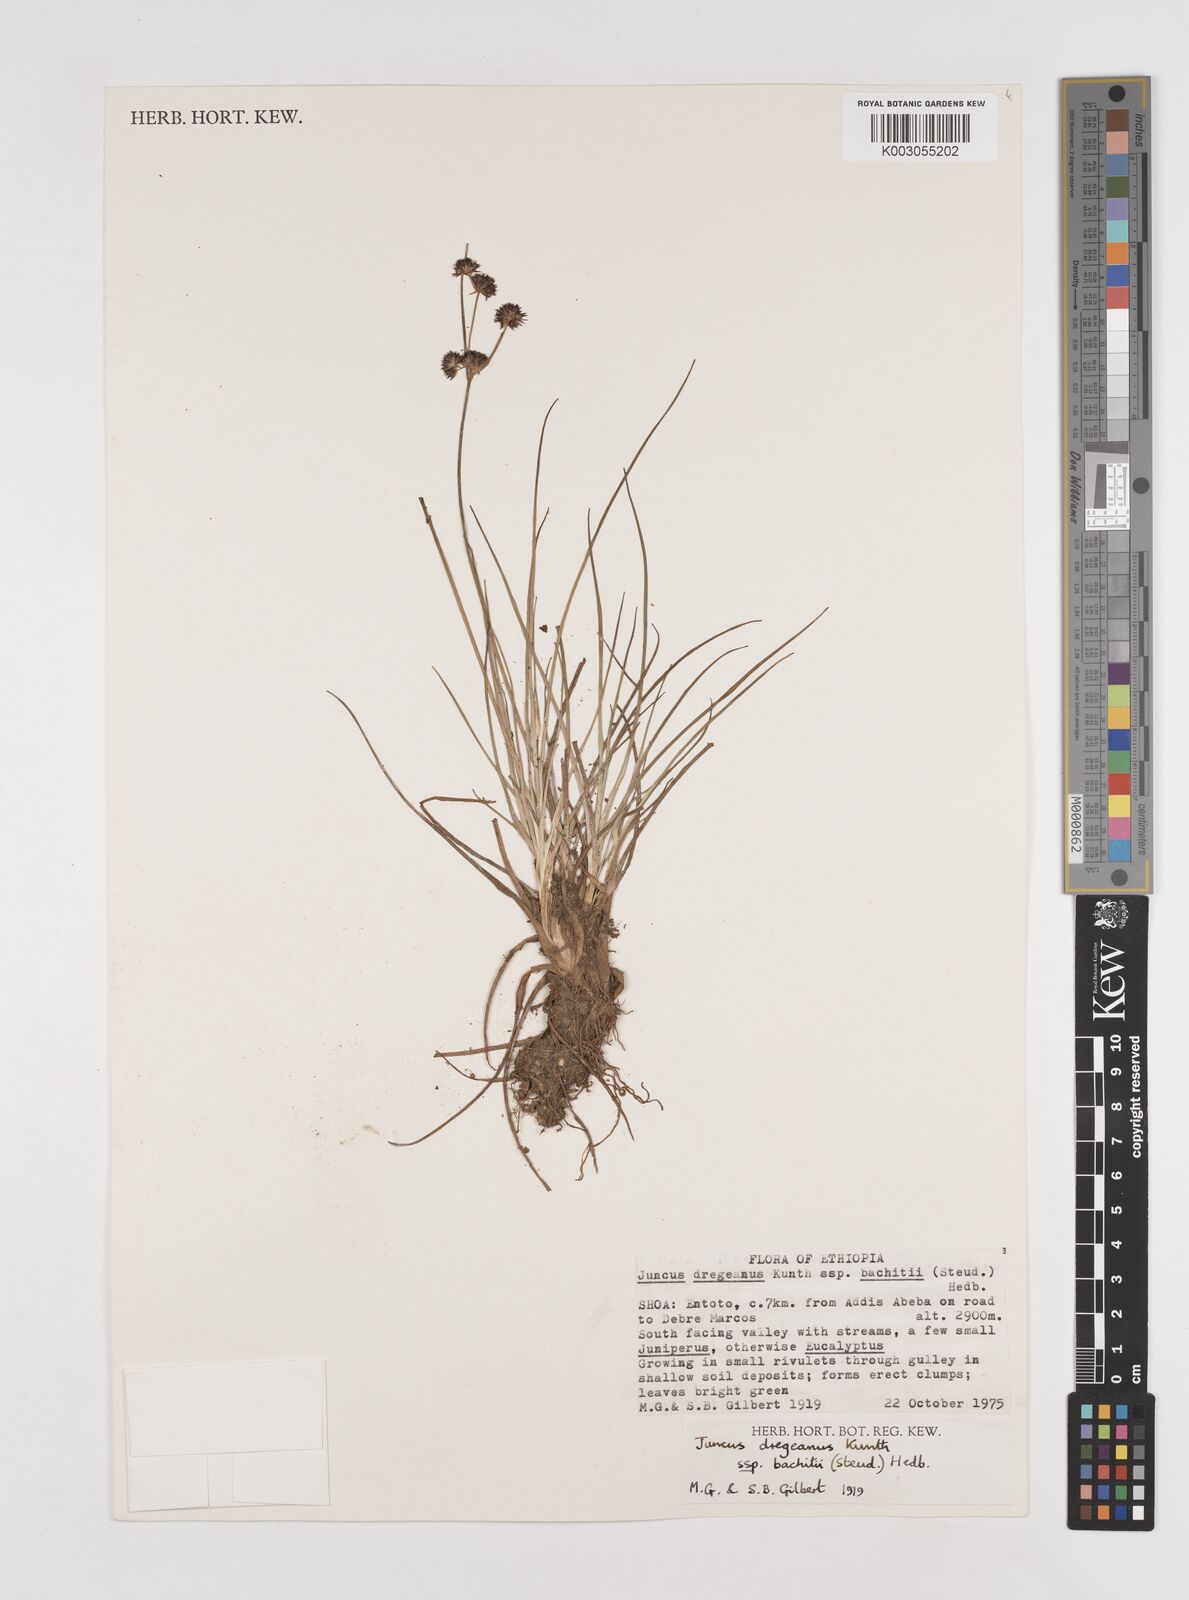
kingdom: Plantae
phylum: Tracheophyta
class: Liliopsida
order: Poales
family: Juncaceae
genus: Juncus
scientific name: Juncus dregeanus
